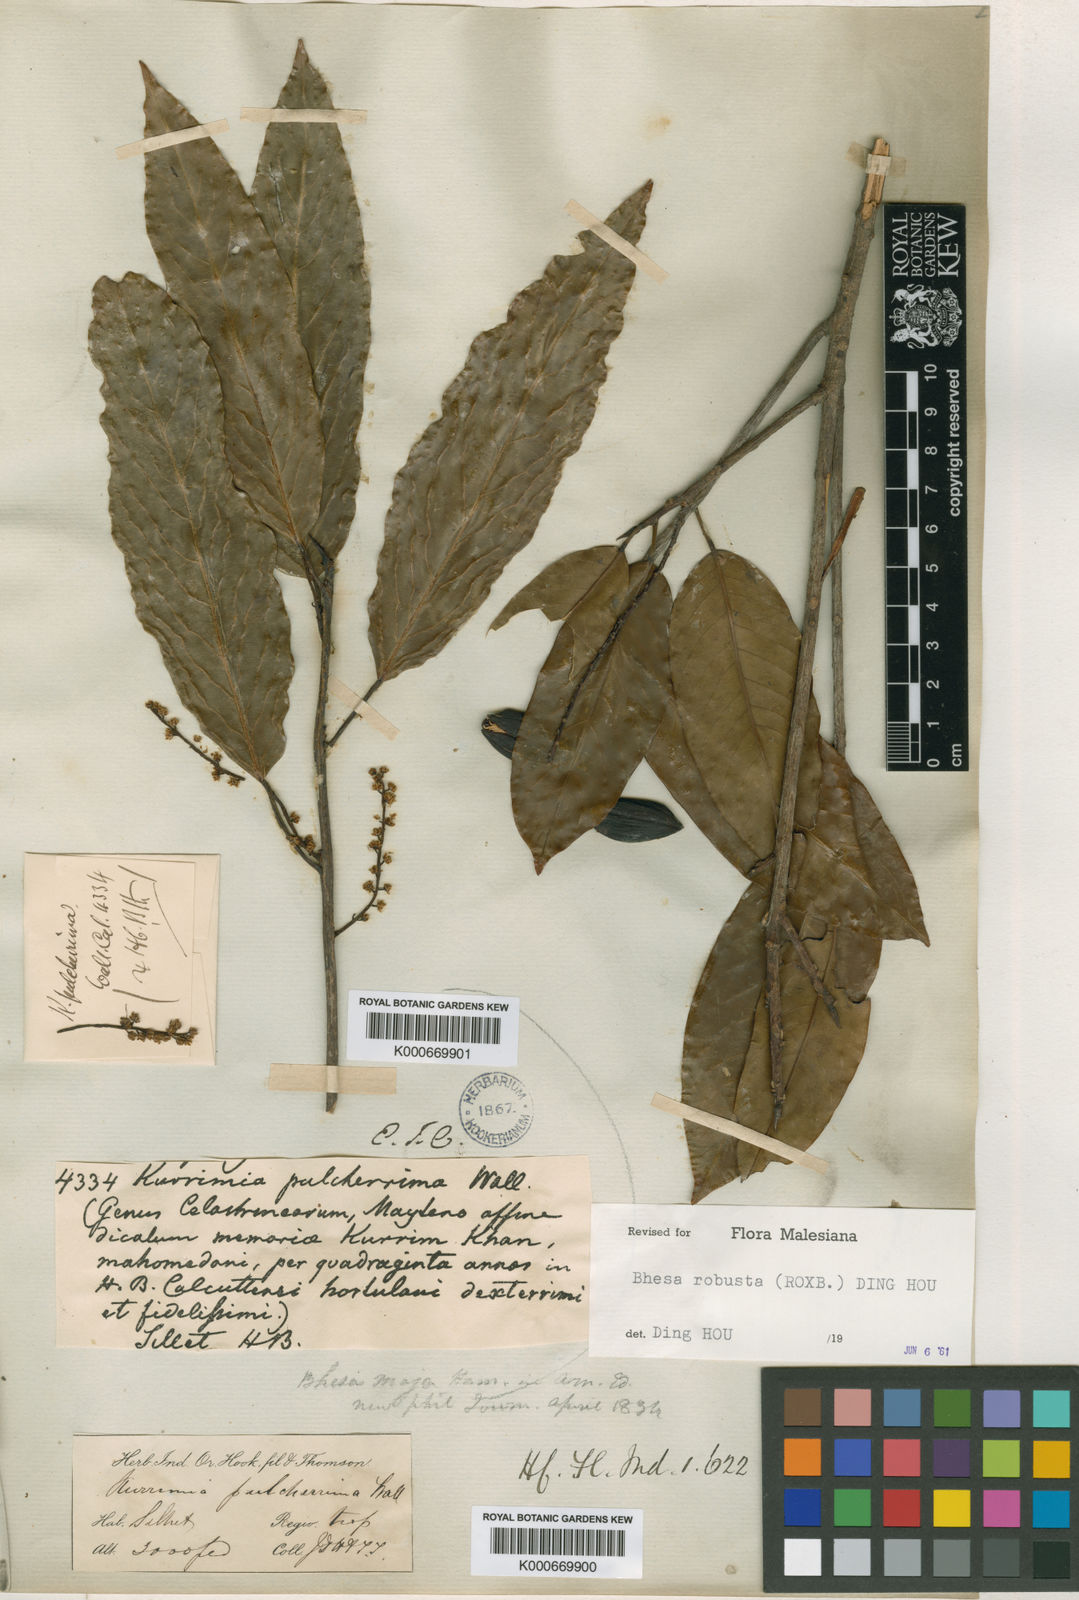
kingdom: Plantae
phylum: Tracheophyta
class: Magnoliopsida
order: Malpighiales
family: Centroplacaceae
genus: Bhesa
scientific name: Bhesa robusta
